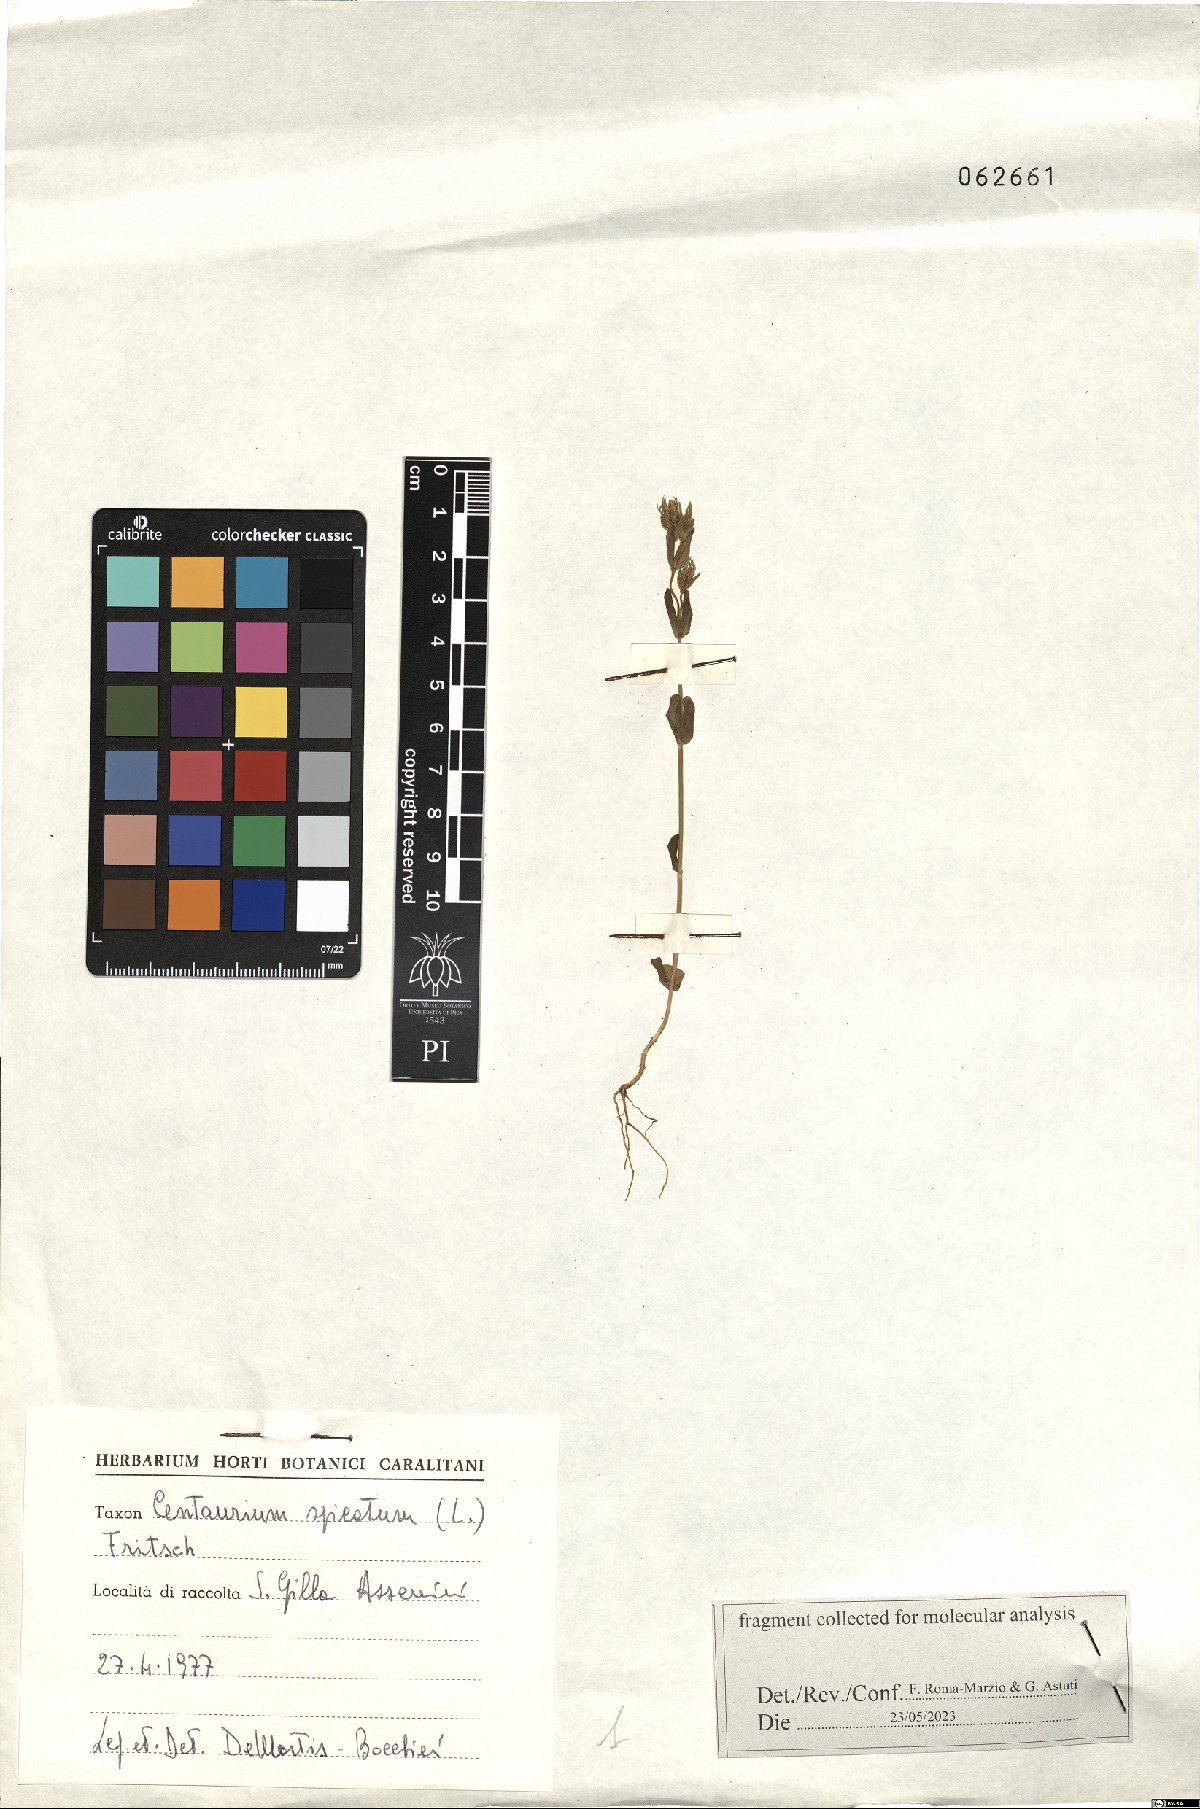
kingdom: Plantae
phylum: Tracheophyta
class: Magnoliopsida
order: Gentianales
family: Gentianaceae
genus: Schenkia
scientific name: Schenkia spicata
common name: Spiked centaury
